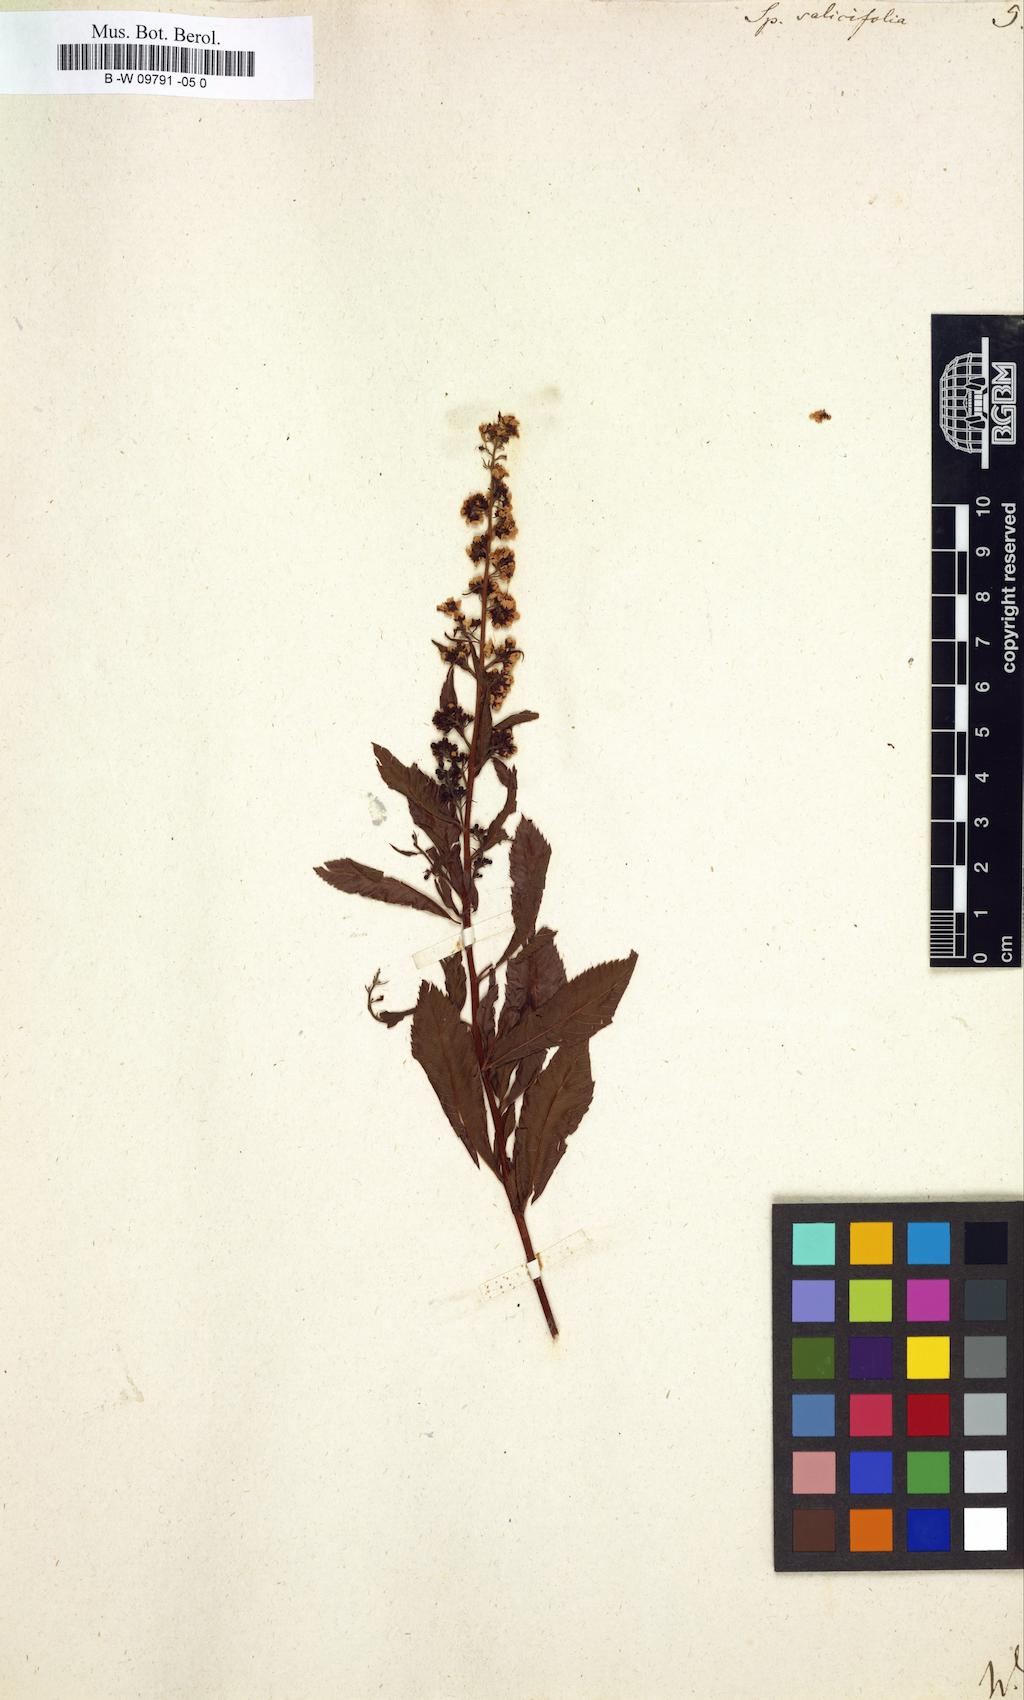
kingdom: Plantae
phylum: Tracheophyta
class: Magnoliopsida
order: Rosales
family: Rosaceae
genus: Spiraea
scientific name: Spiraea salicifolia
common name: Bridewort
